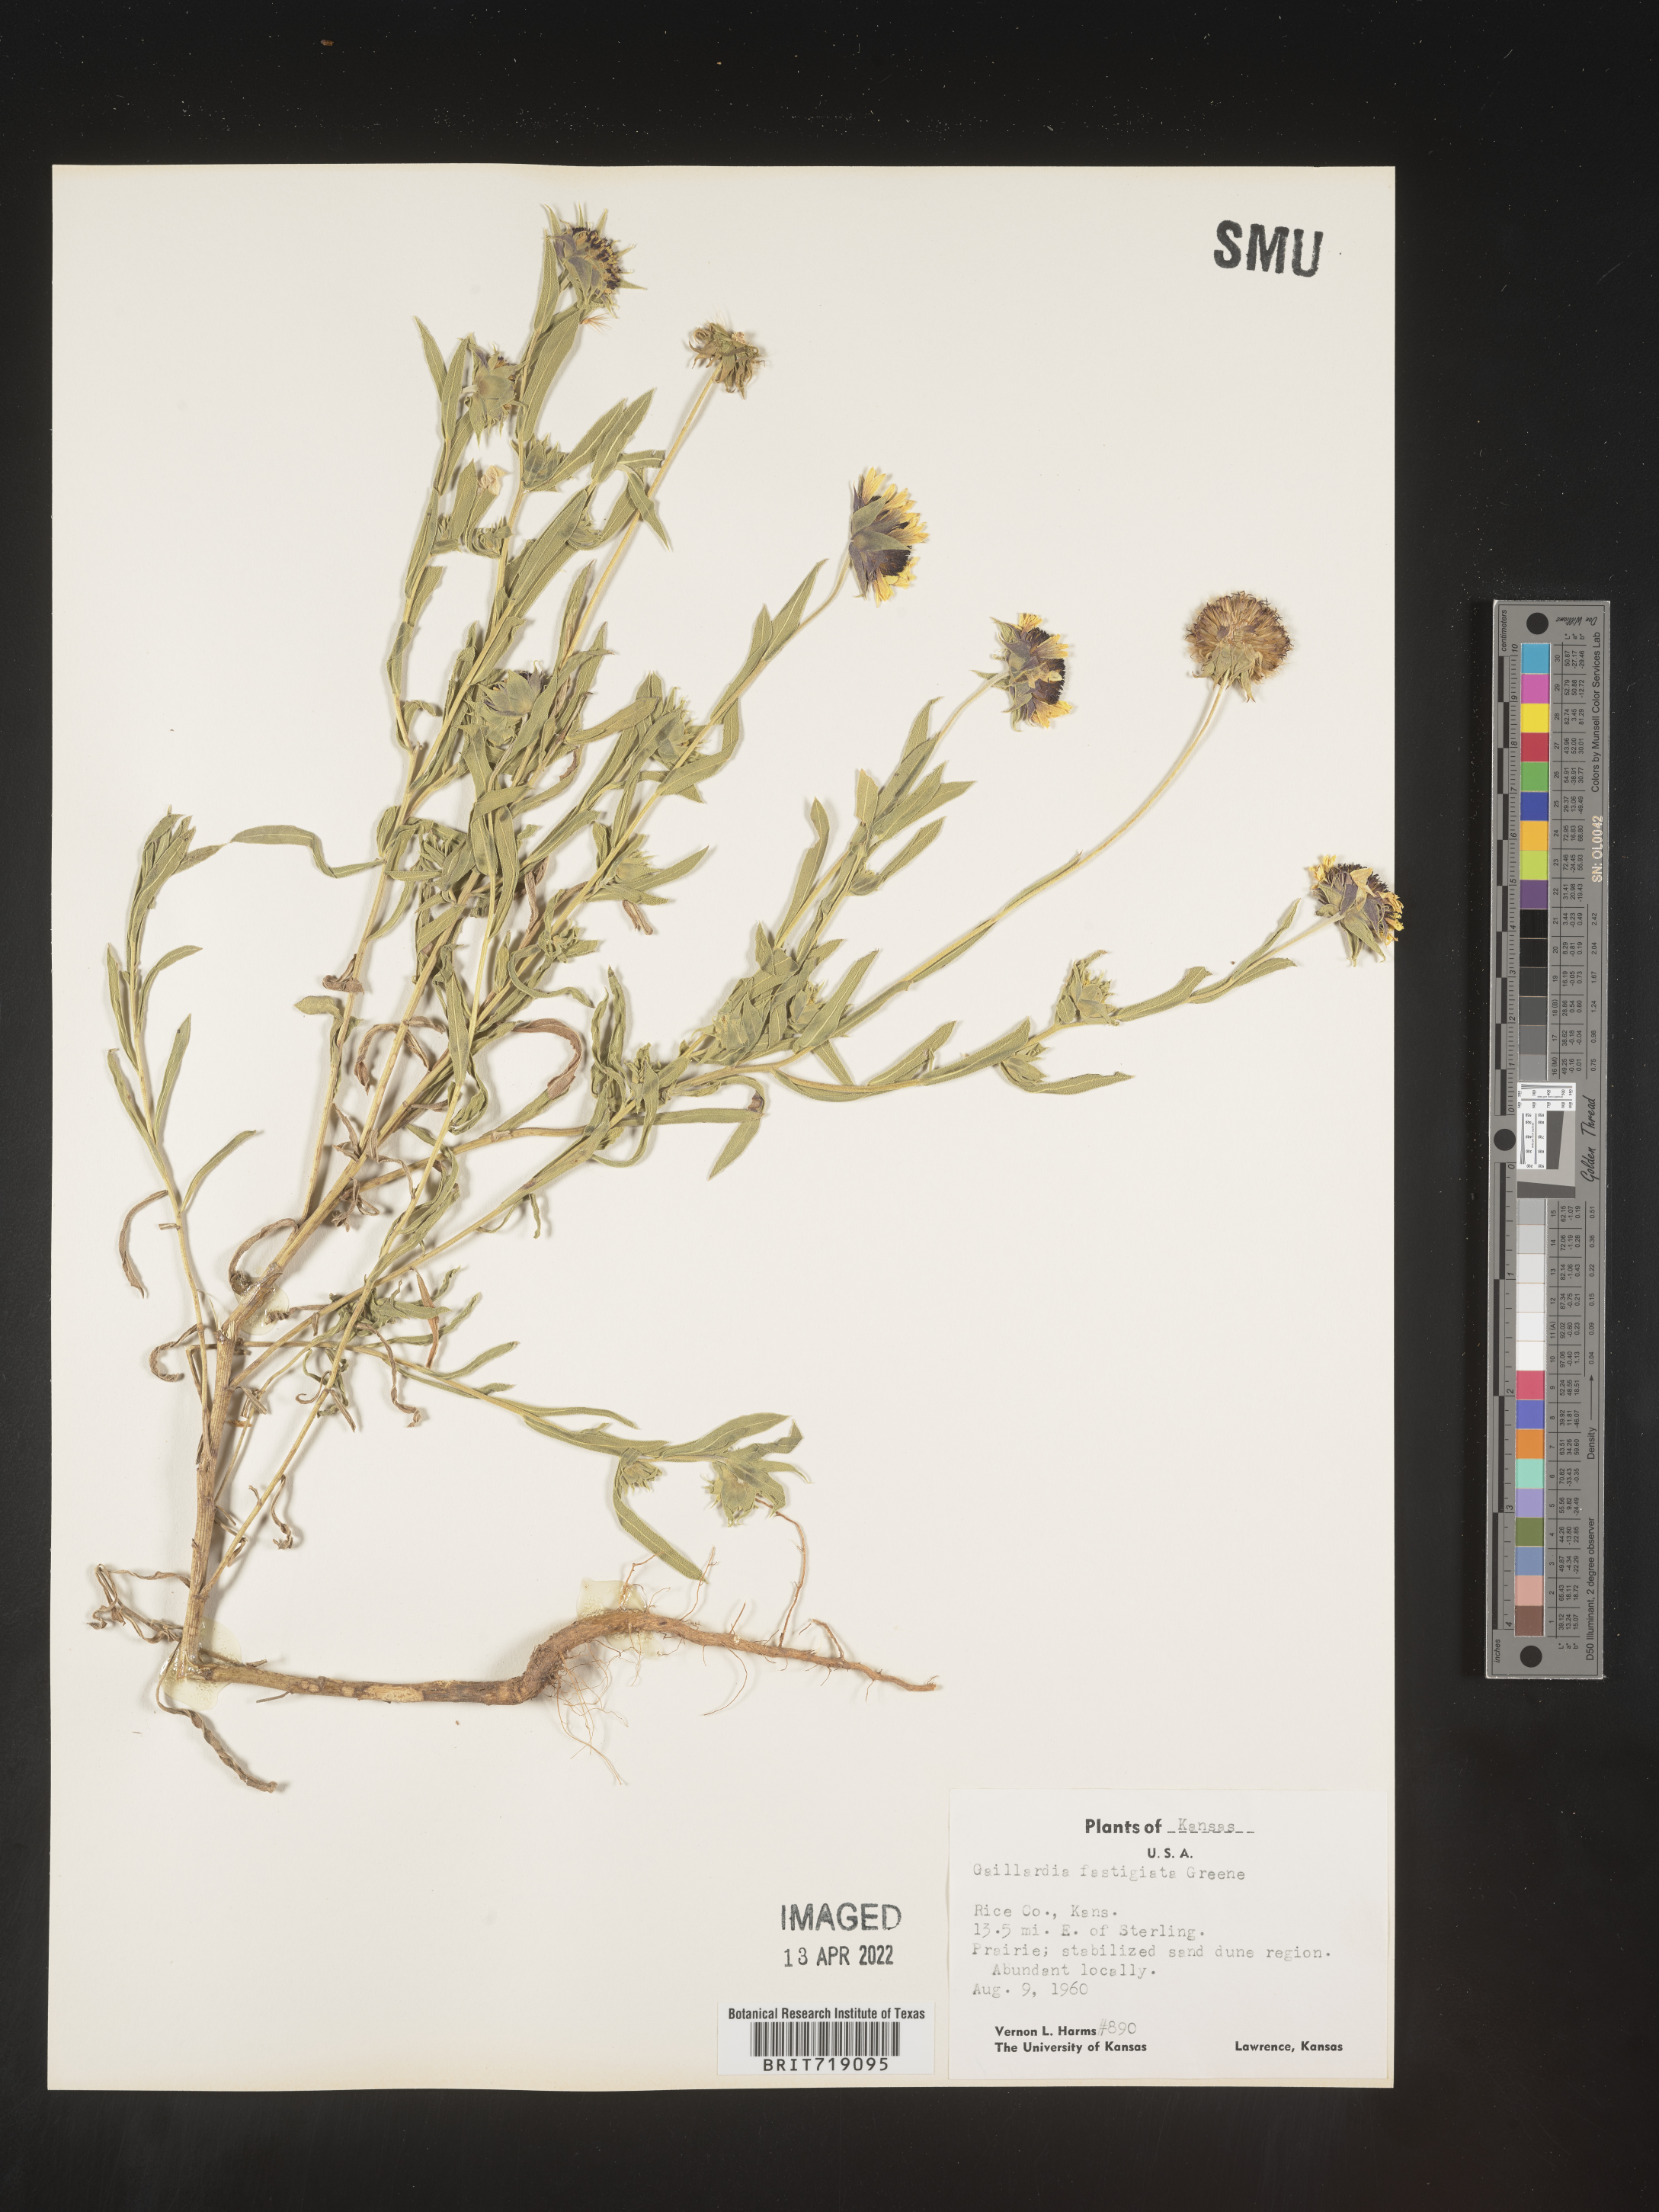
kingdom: Plantae
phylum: Tracheophyta
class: Magnoliopsida
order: Asterales
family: Asteraceae
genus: Gaillardia
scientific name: Gaillardia aestivalis
